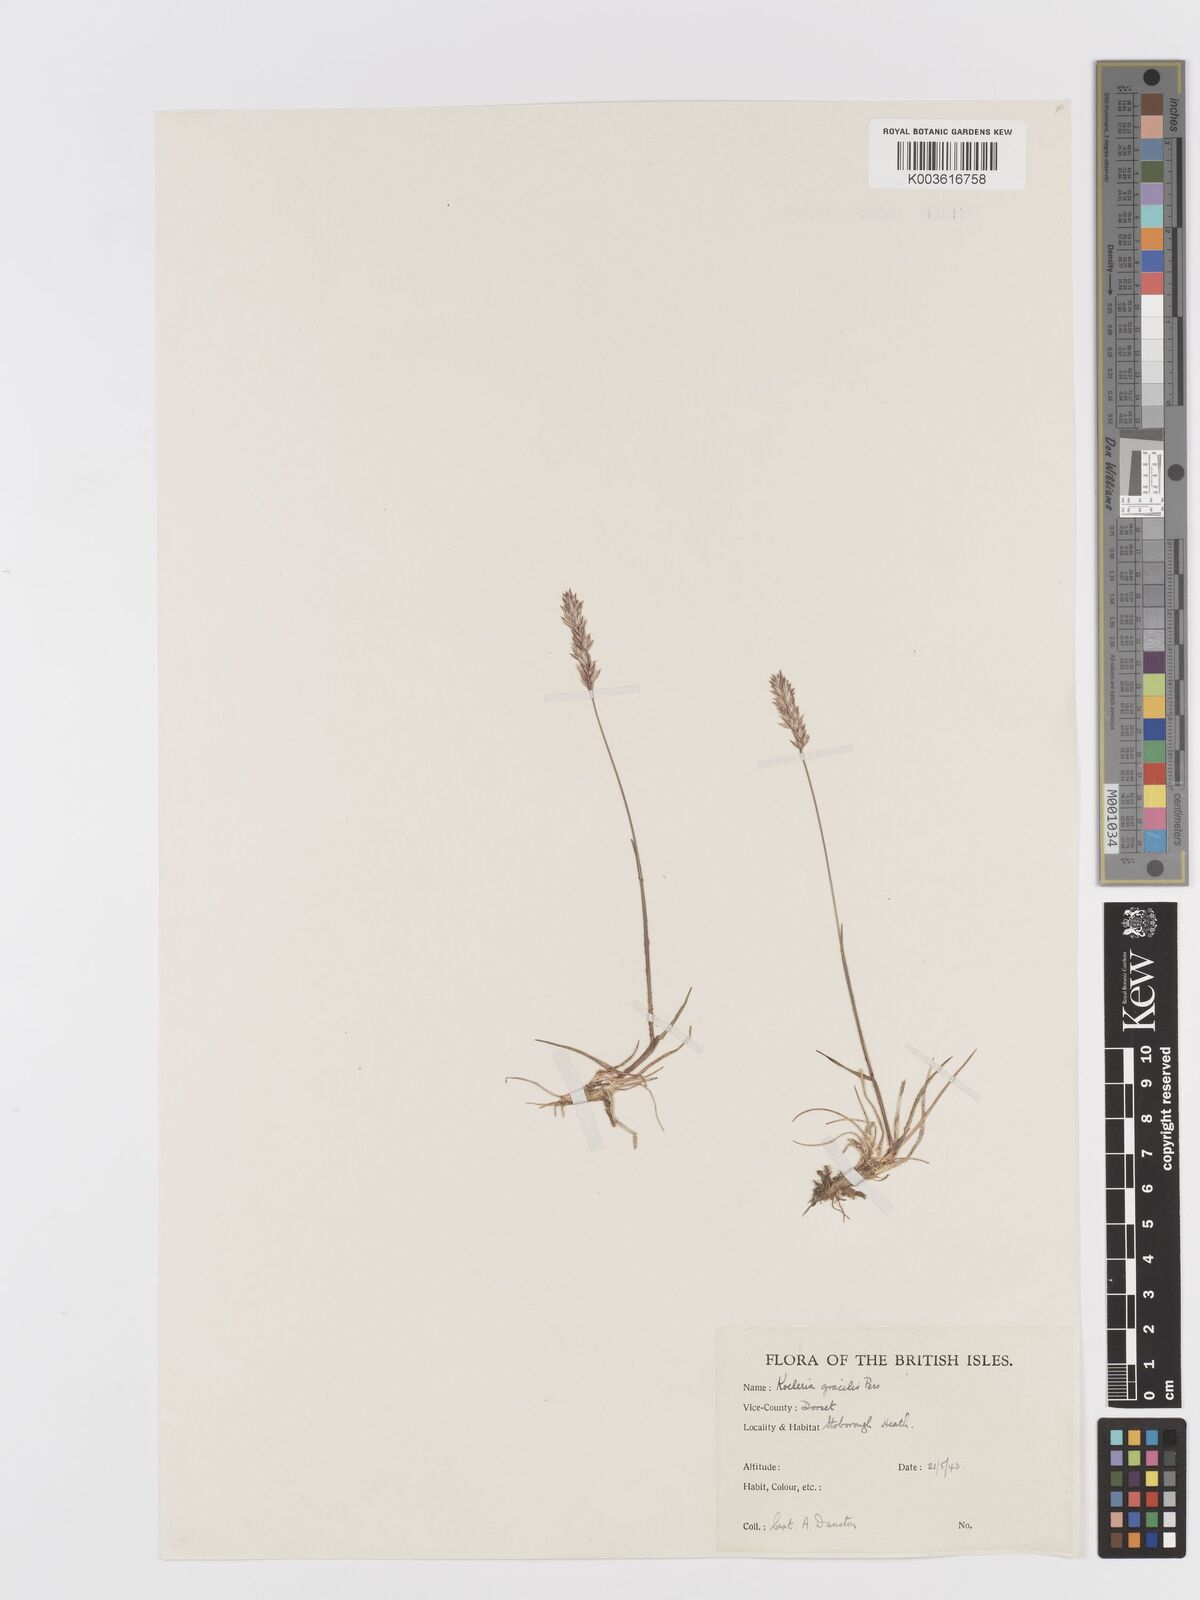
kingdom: Plantae
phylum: Tracheophyta
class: Liliopsida
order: Poales
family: Poaceae
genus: Koeleria
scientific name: Koeleria
